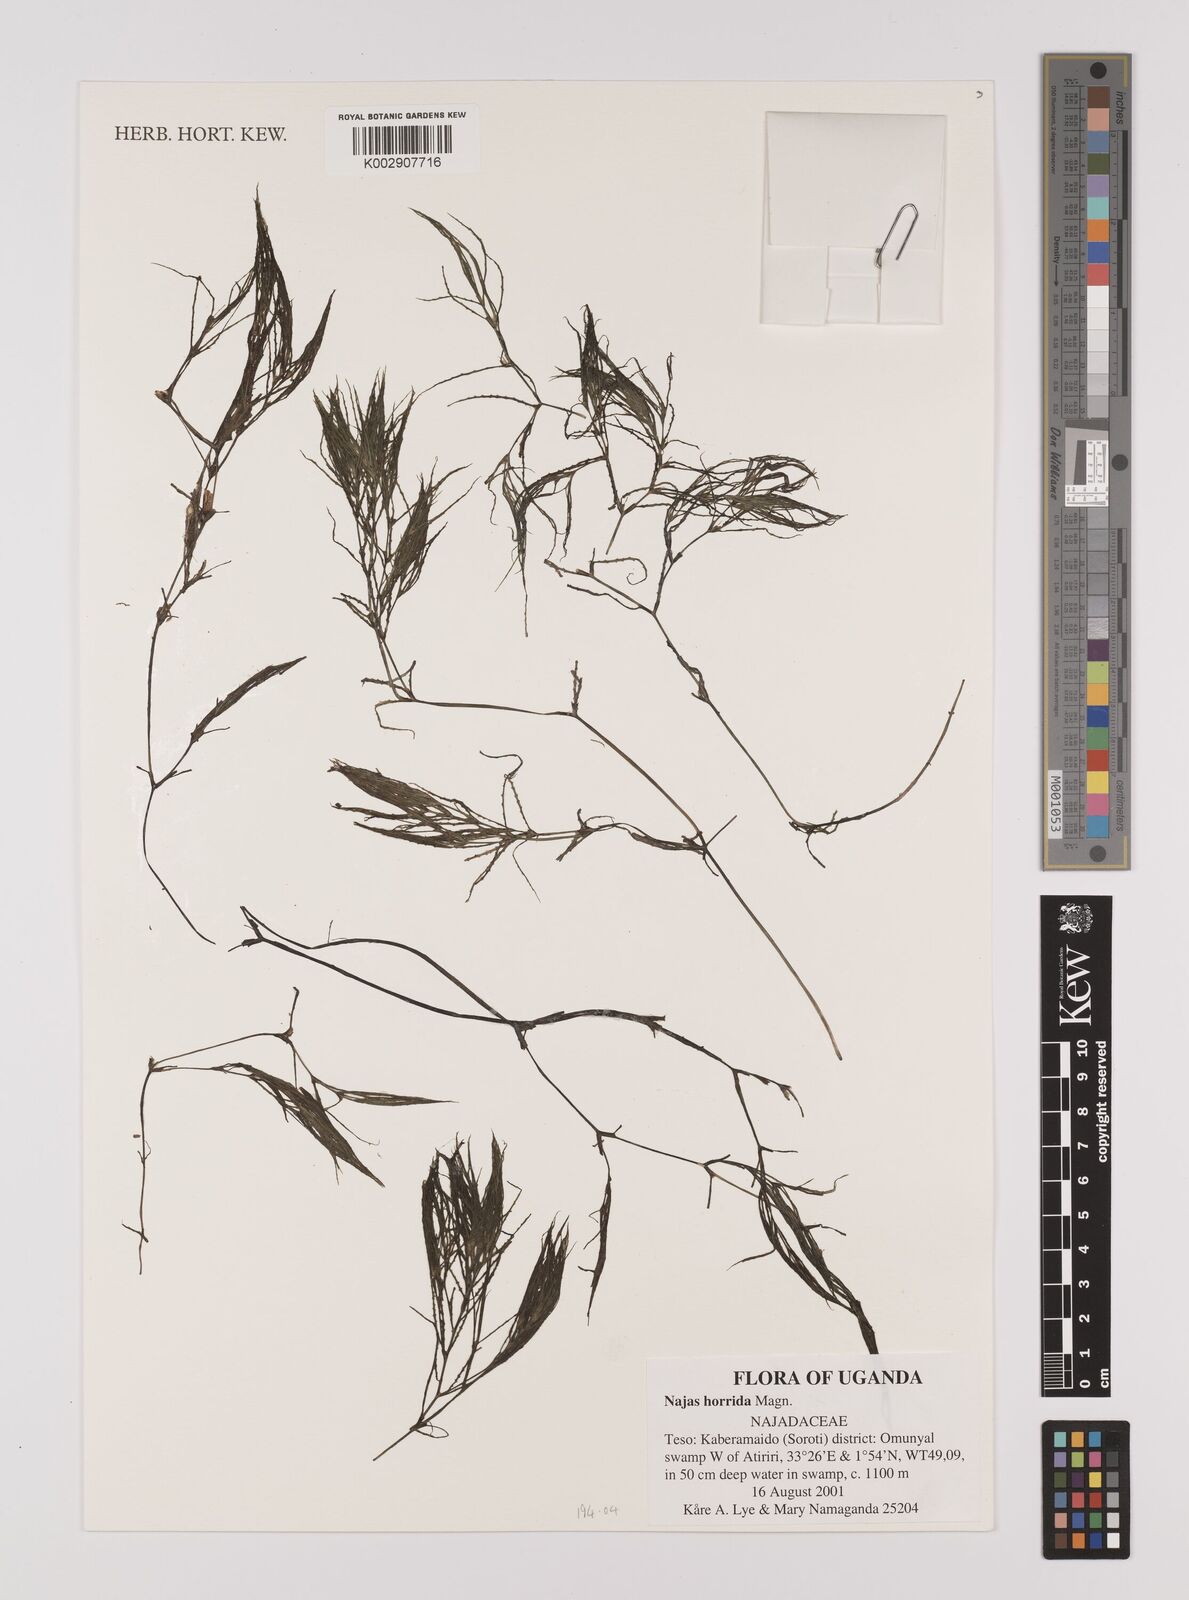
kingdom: Plantae
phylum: Tracheophyta
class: Liliopsida
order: Alismatales
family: Hydrocharitaceae
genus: Najas
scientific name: Najas horrida
